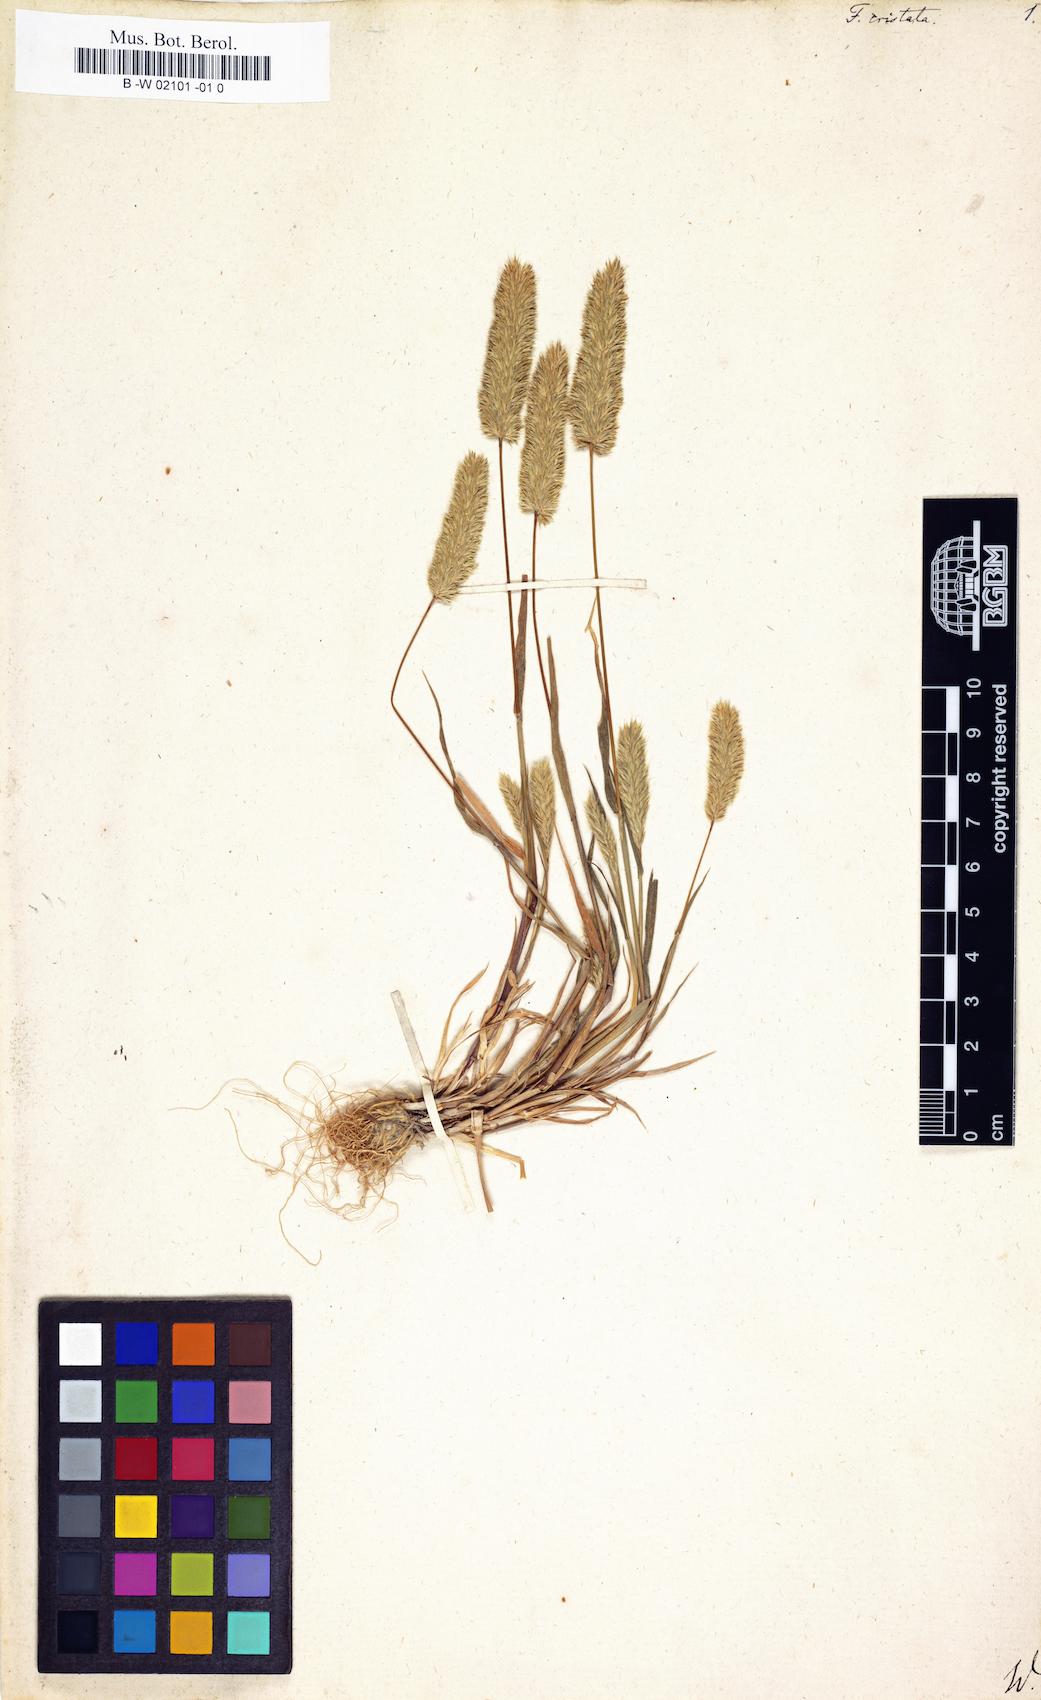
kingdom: Plantae
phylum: Tracheophyta
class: Liliopsida
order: Poales
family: Poaceae
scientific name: Poaceae
